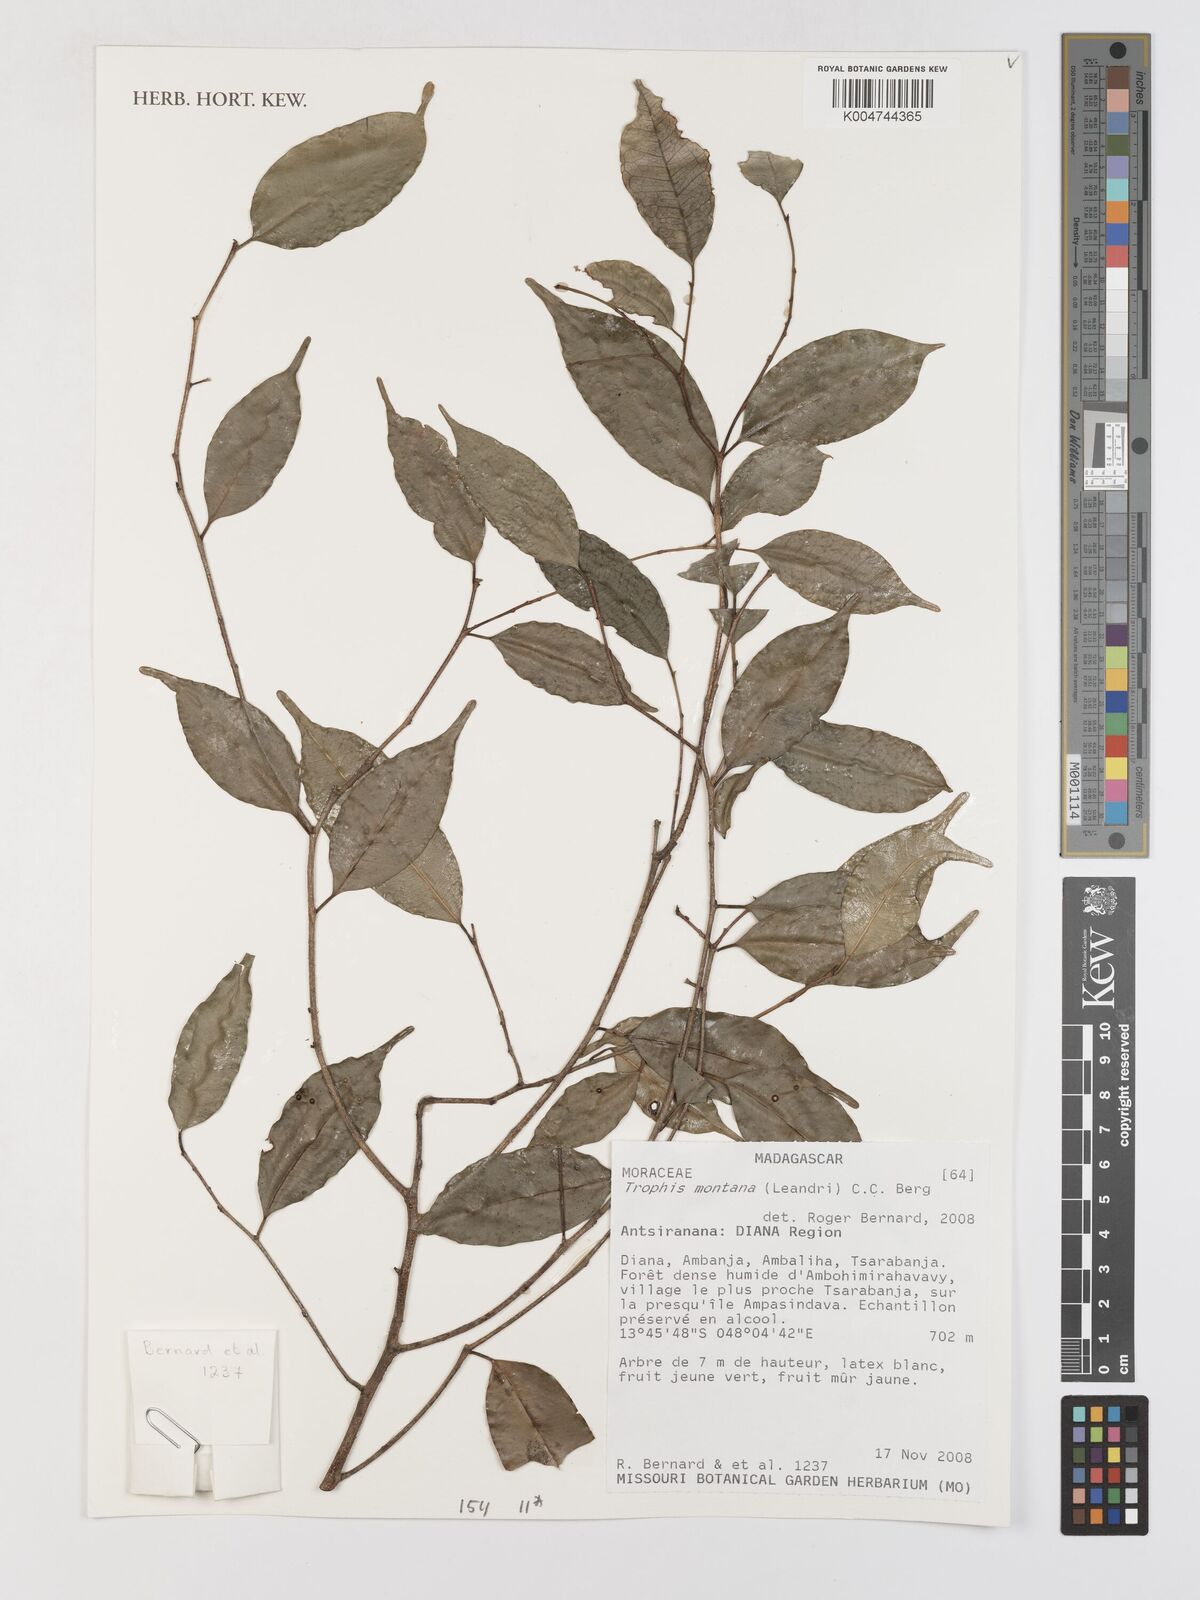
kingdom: Plantae
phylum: Tracheophyta
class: Magnoliopsida
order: Rosales
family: Moraceae
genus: Maillardia
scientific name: Maillardia montana
